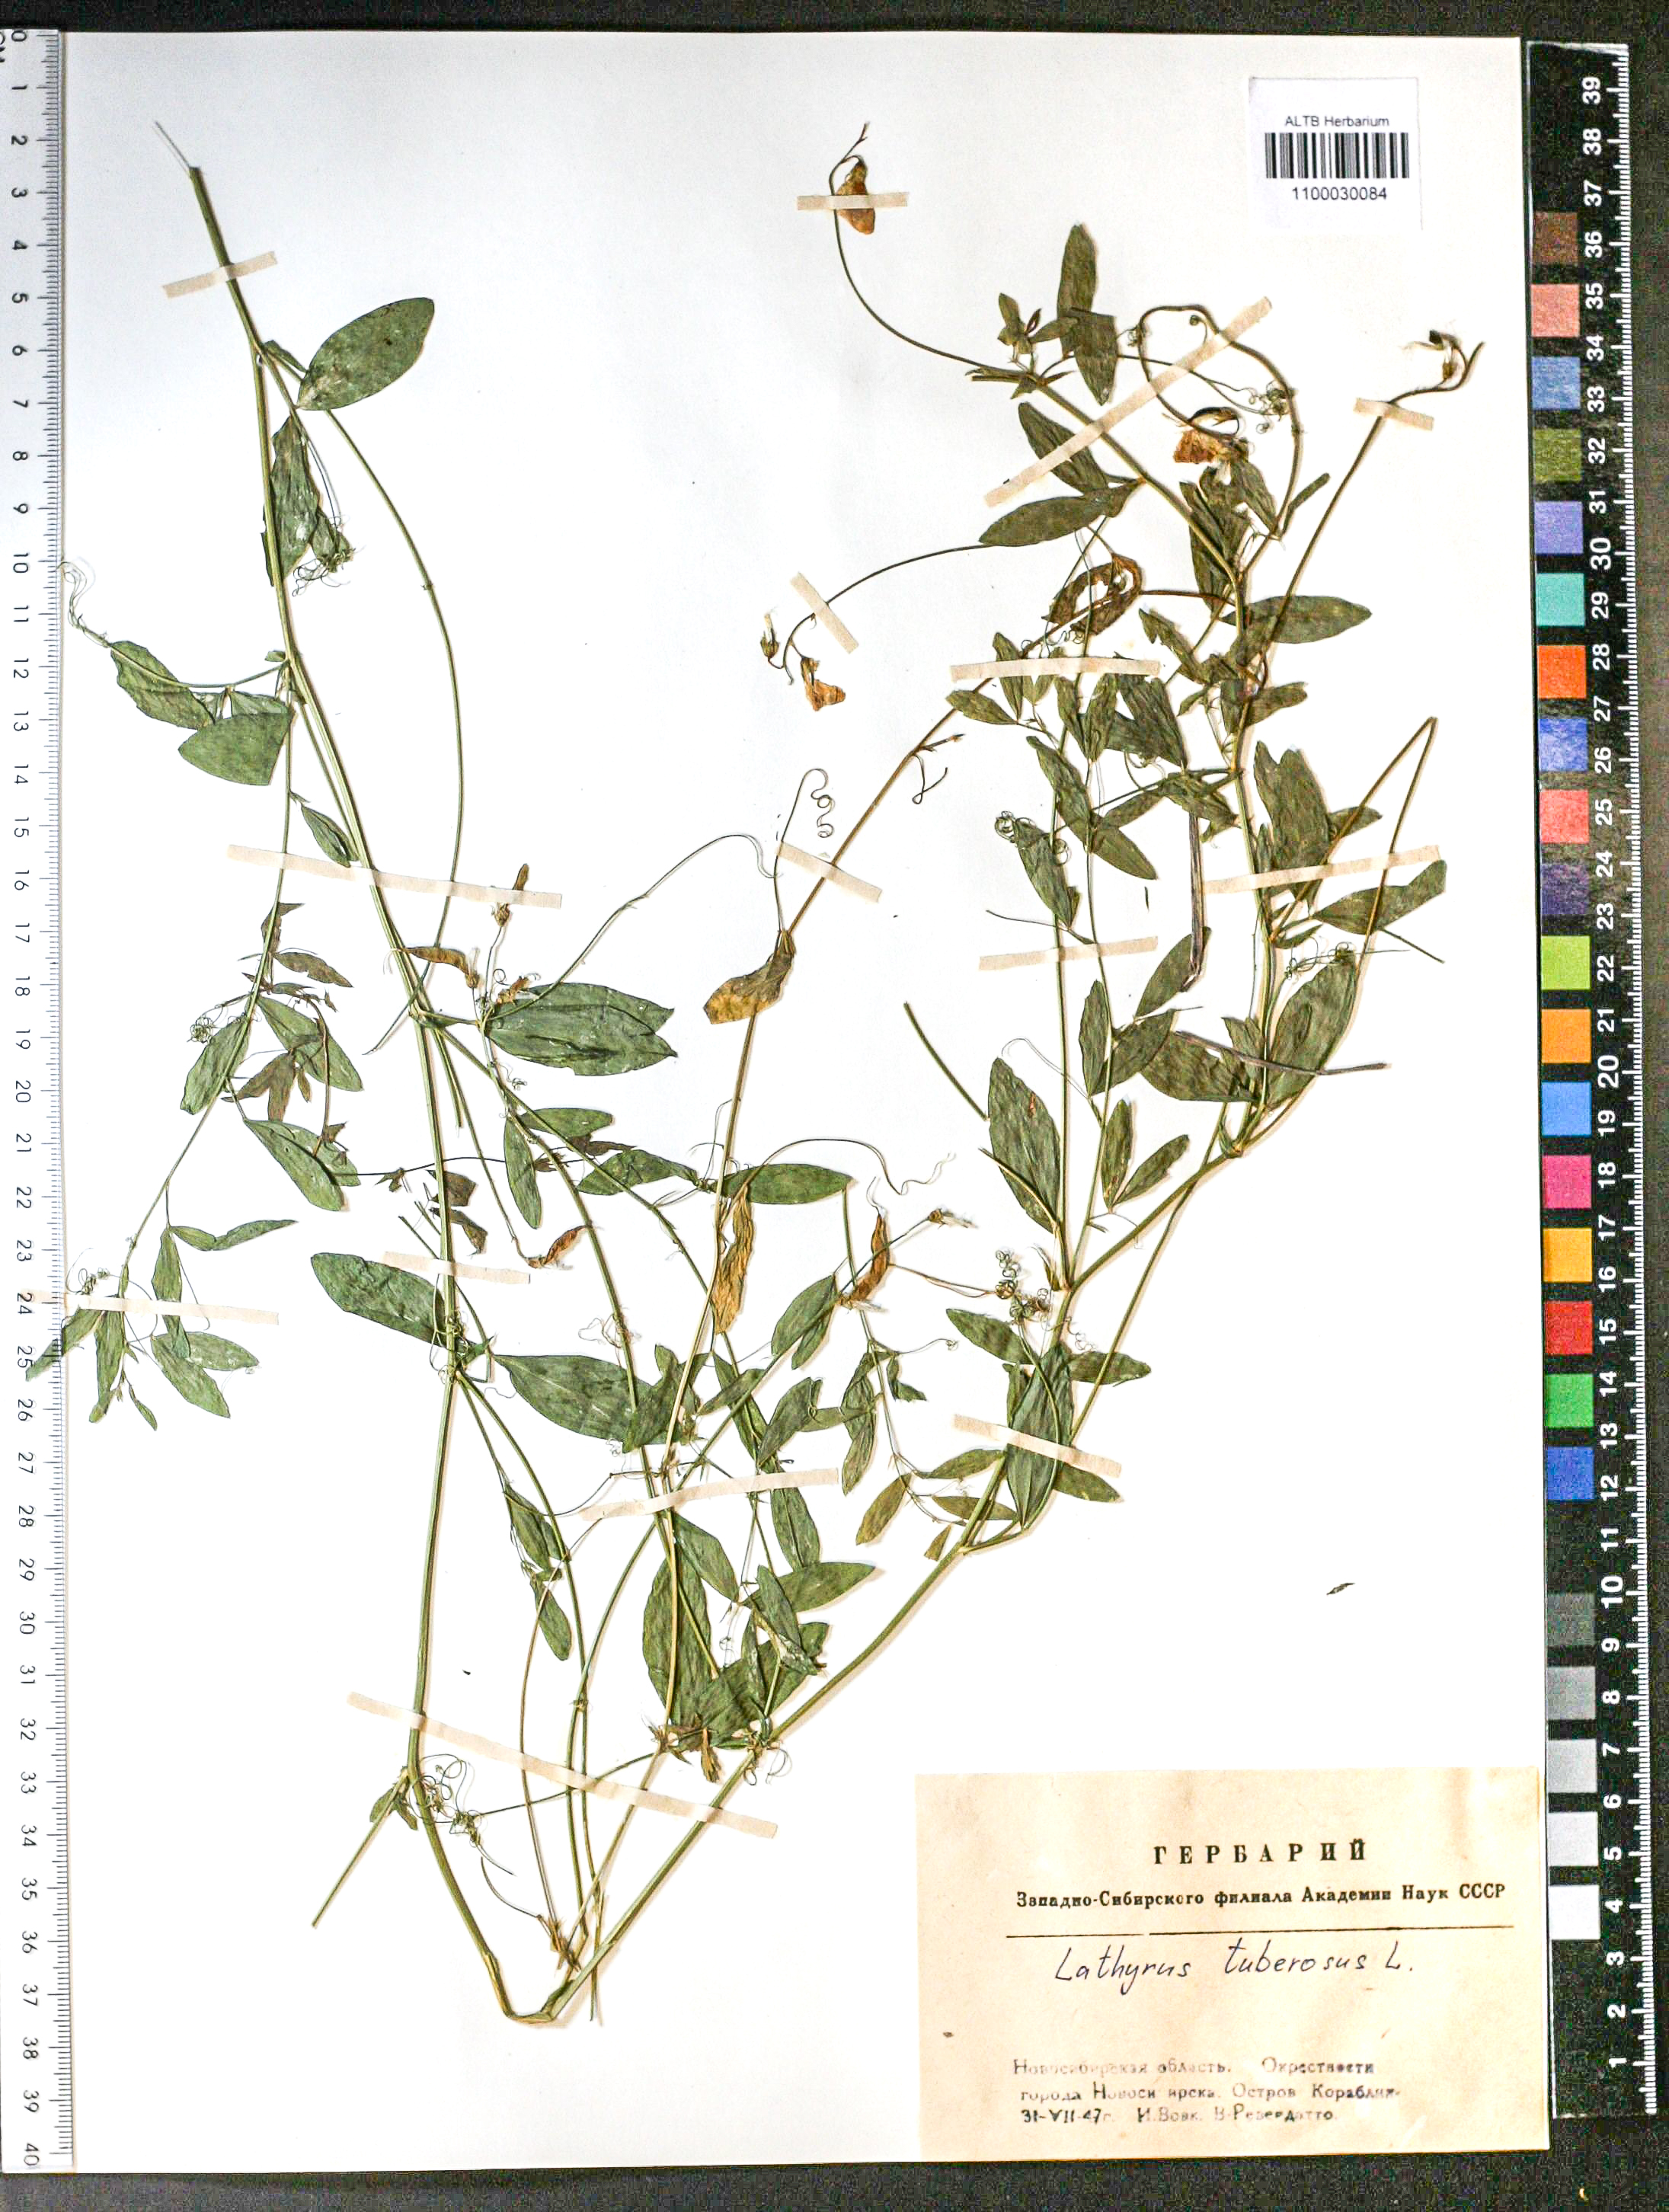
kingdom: Plantae
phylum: Tracheophyta
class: Magnoliopsida
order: Fabales
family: Fabaceae
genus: Lathyrus
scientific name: Lathyrus tuberosus
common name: Tuberous pea
